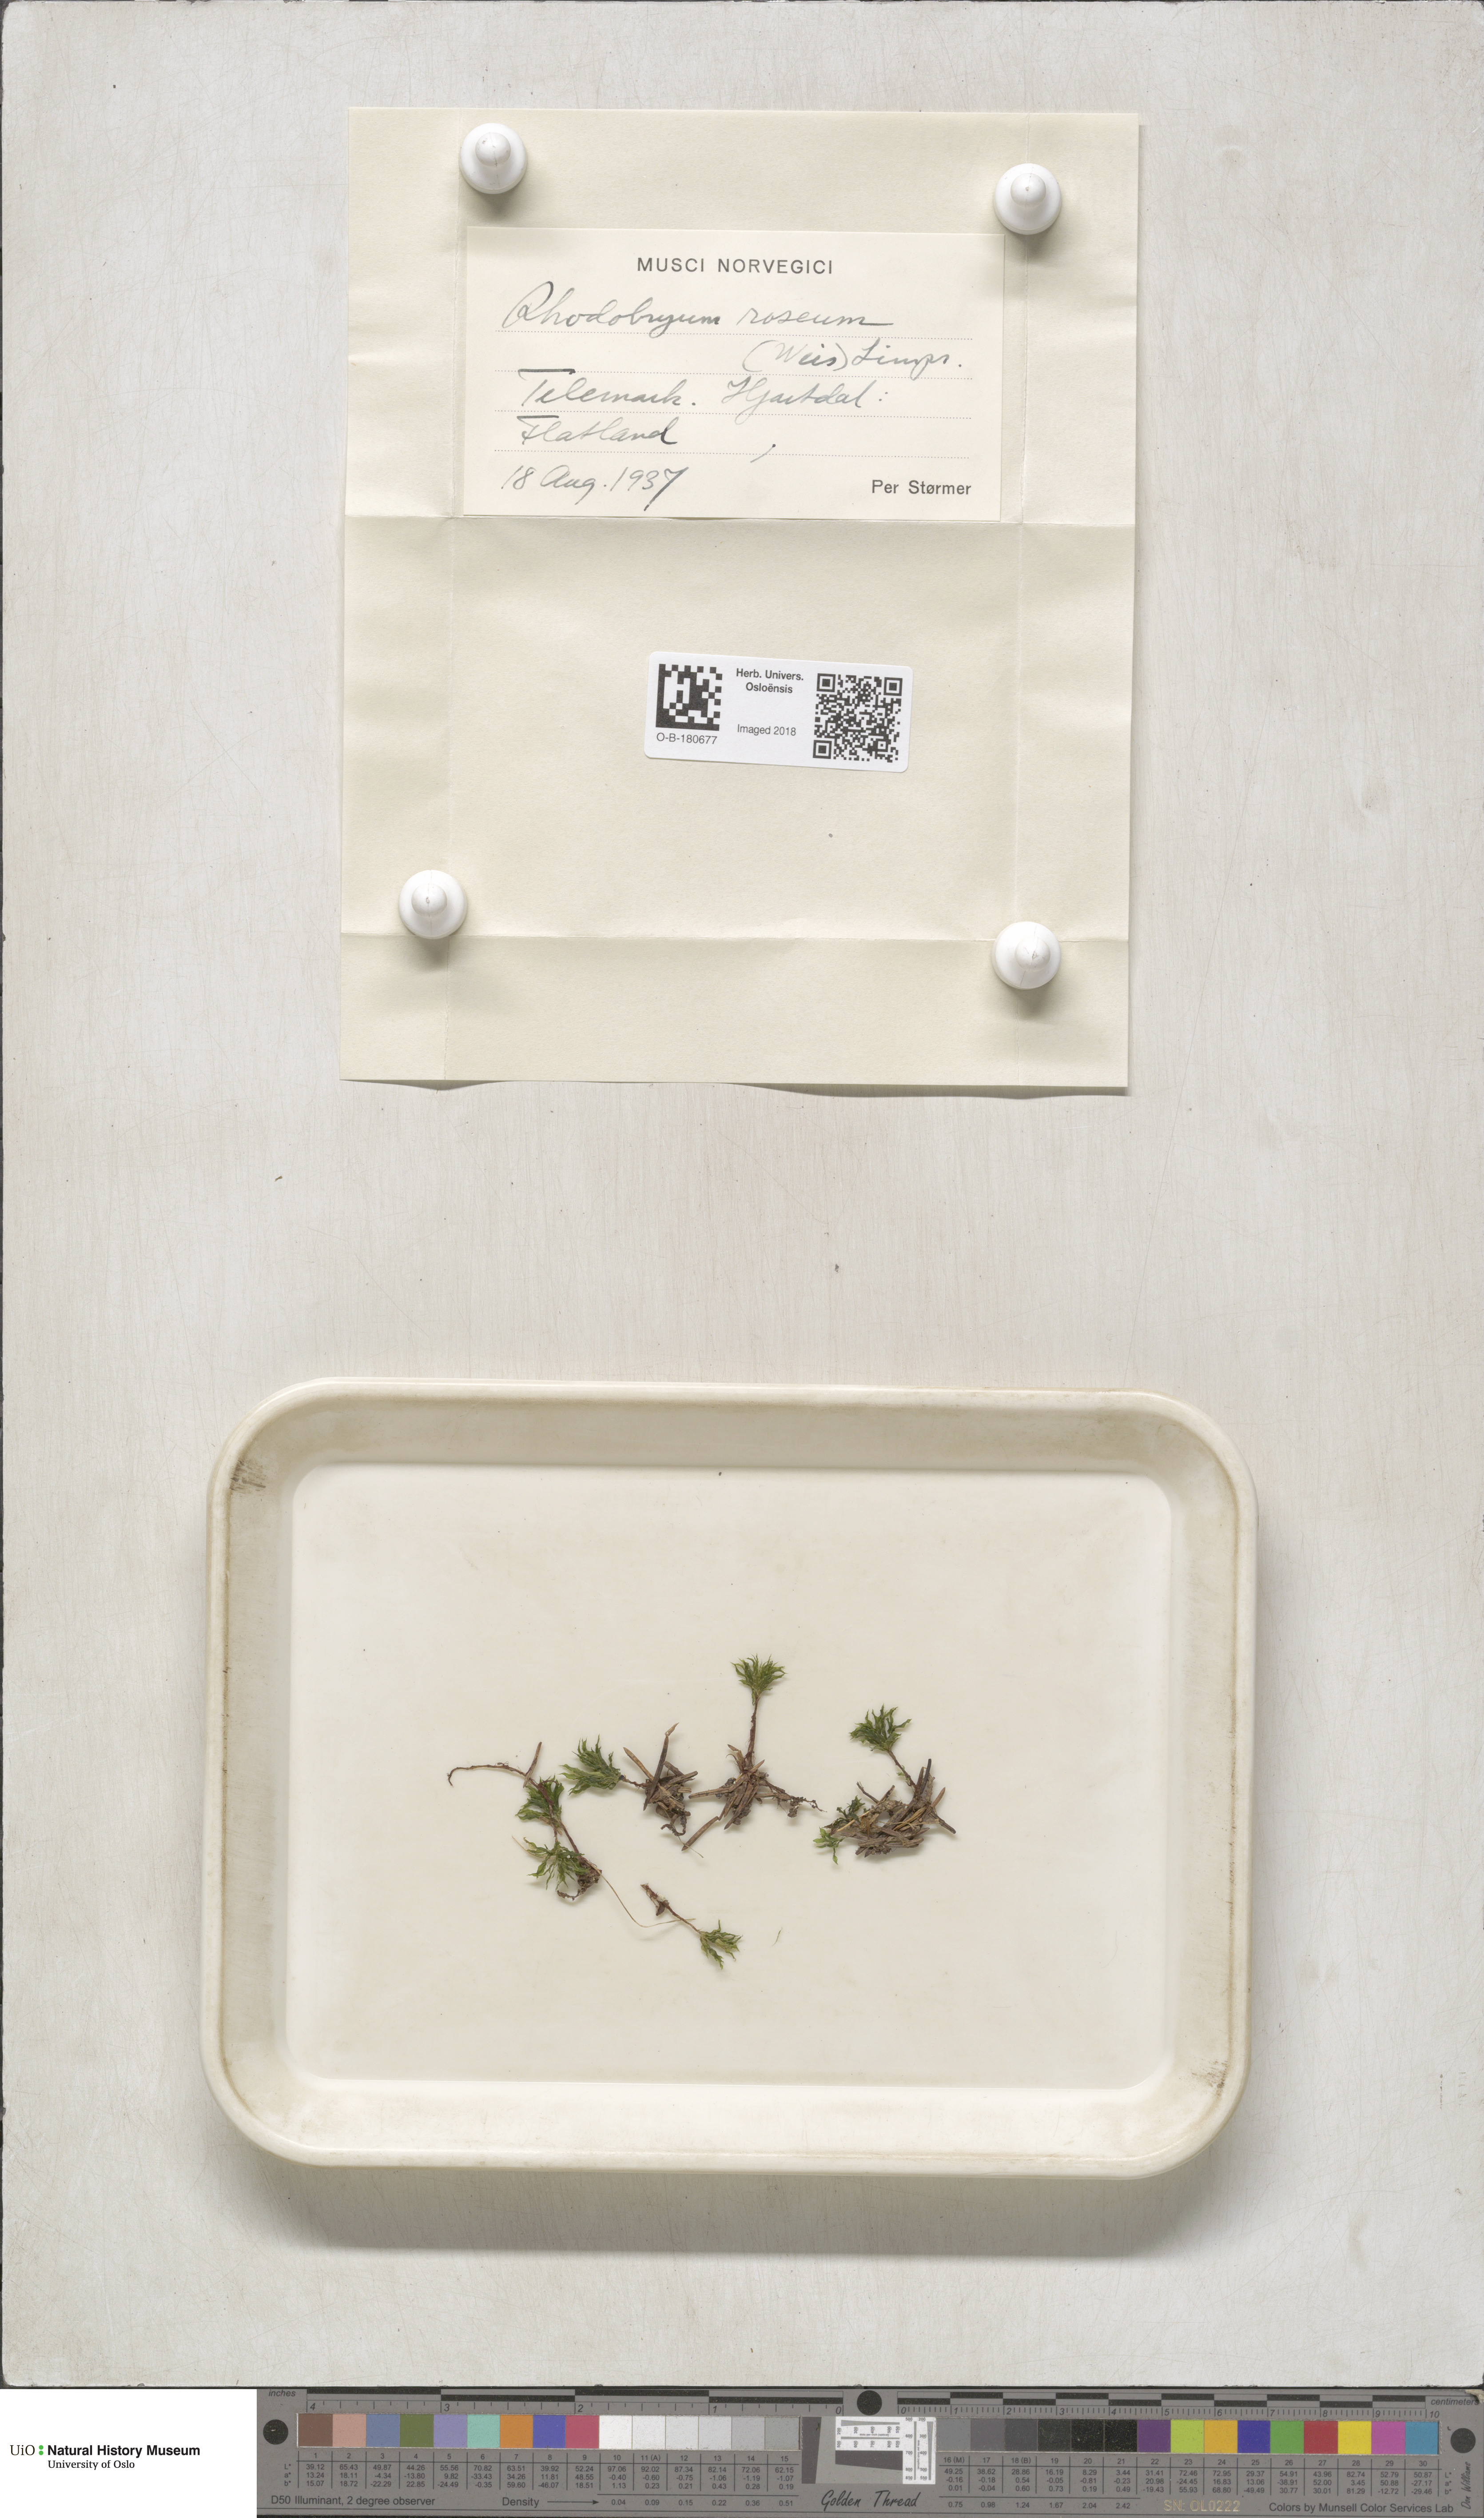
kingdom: Plantae
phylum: Bryophyta
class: Bryopsida
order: Bryales
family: Bryaceae
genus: Rhodobryum
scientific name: Rhodobryum roseum
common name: Rose-moss
